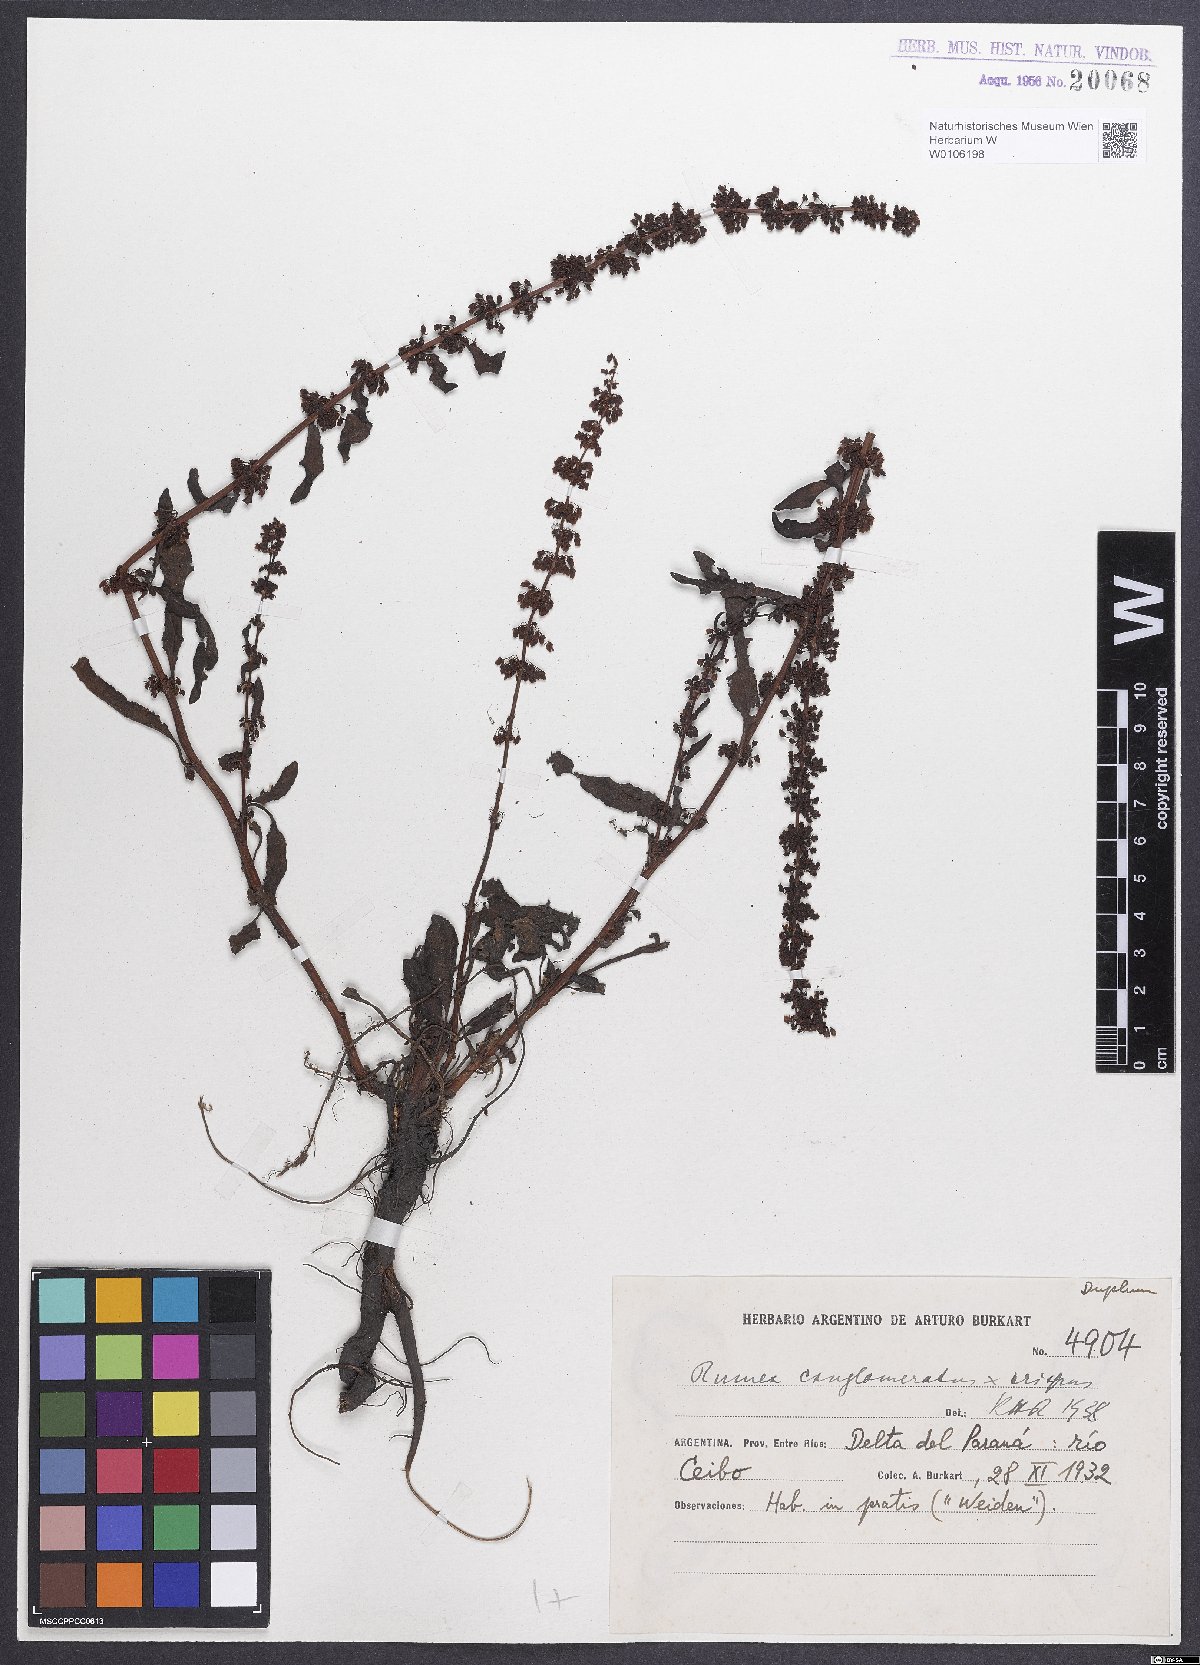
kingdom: Plantae
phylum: Tracheophyta
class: Magnoliopsida
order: Caryophyllales
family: Polygonaceae
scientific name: Polygonaceae
